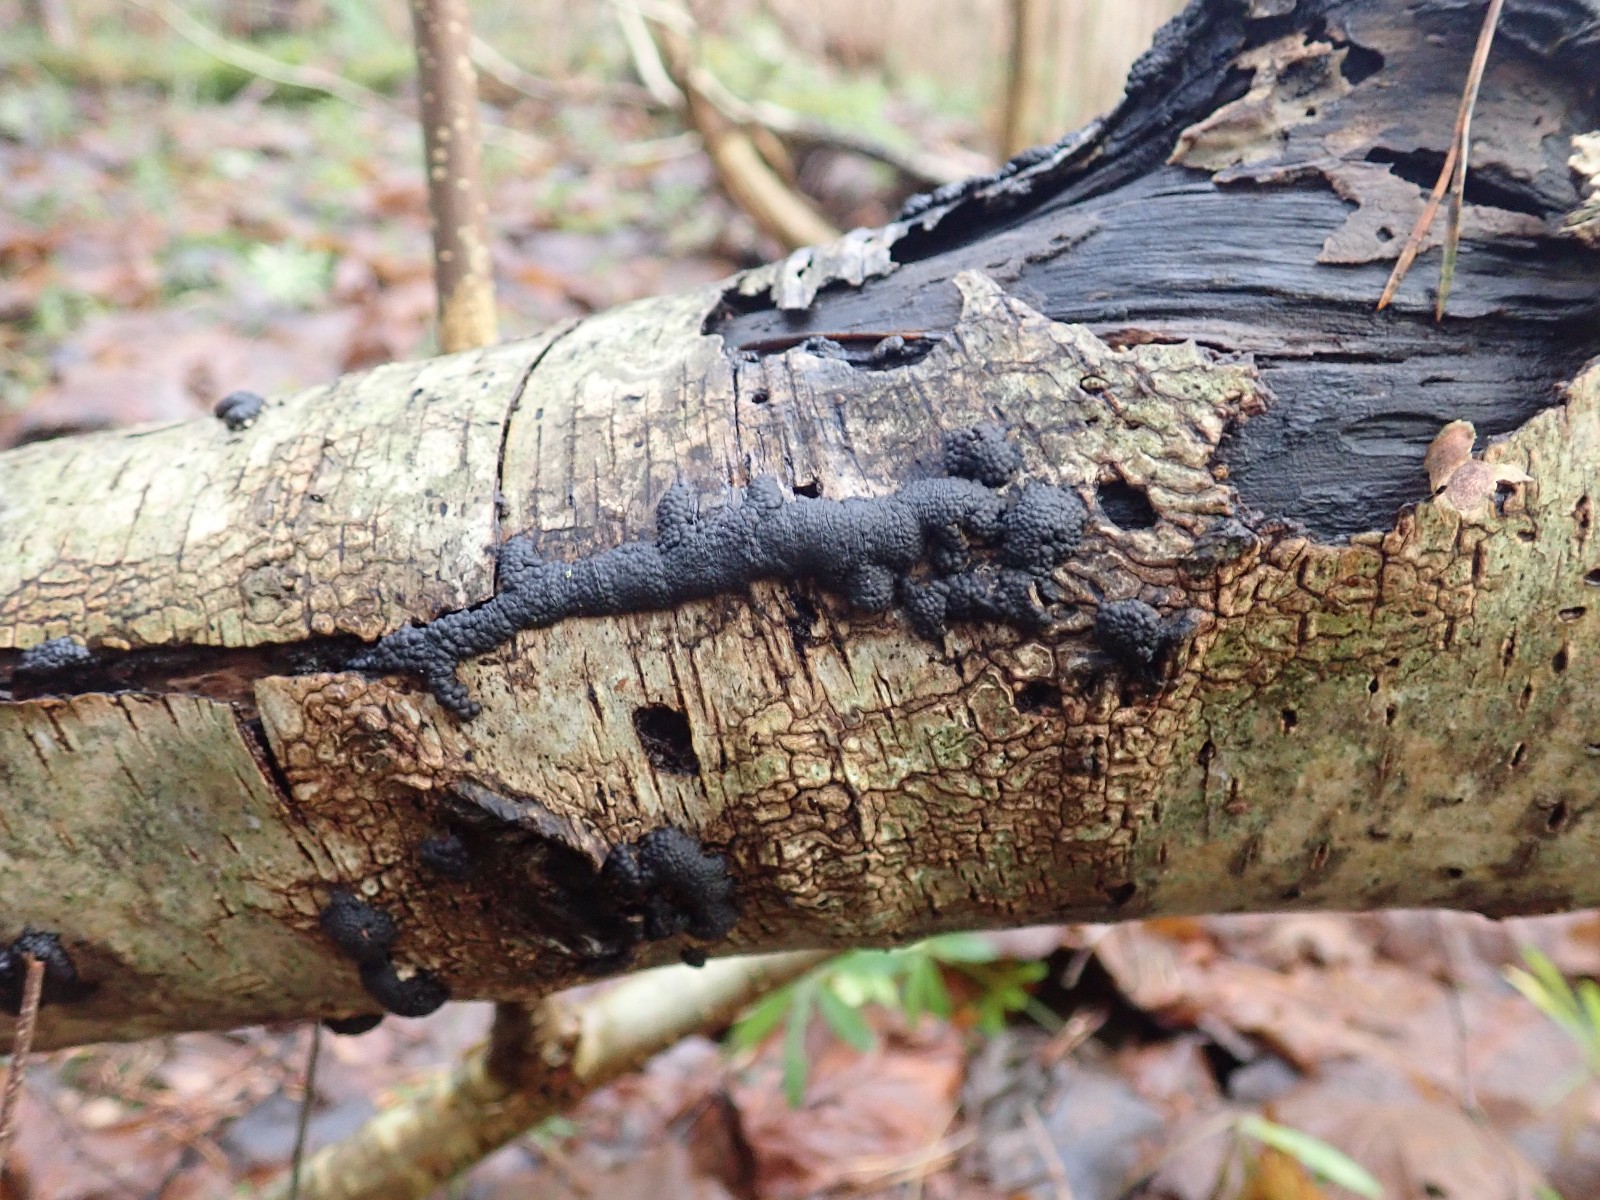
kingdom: Fungi
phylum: Ascomycota
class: Sordariomycetes
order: Xylariales
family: Hypoxylaceae
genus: Jackrogersella
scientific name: Jackrogersella multiformis
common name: foranderlig kulbær
